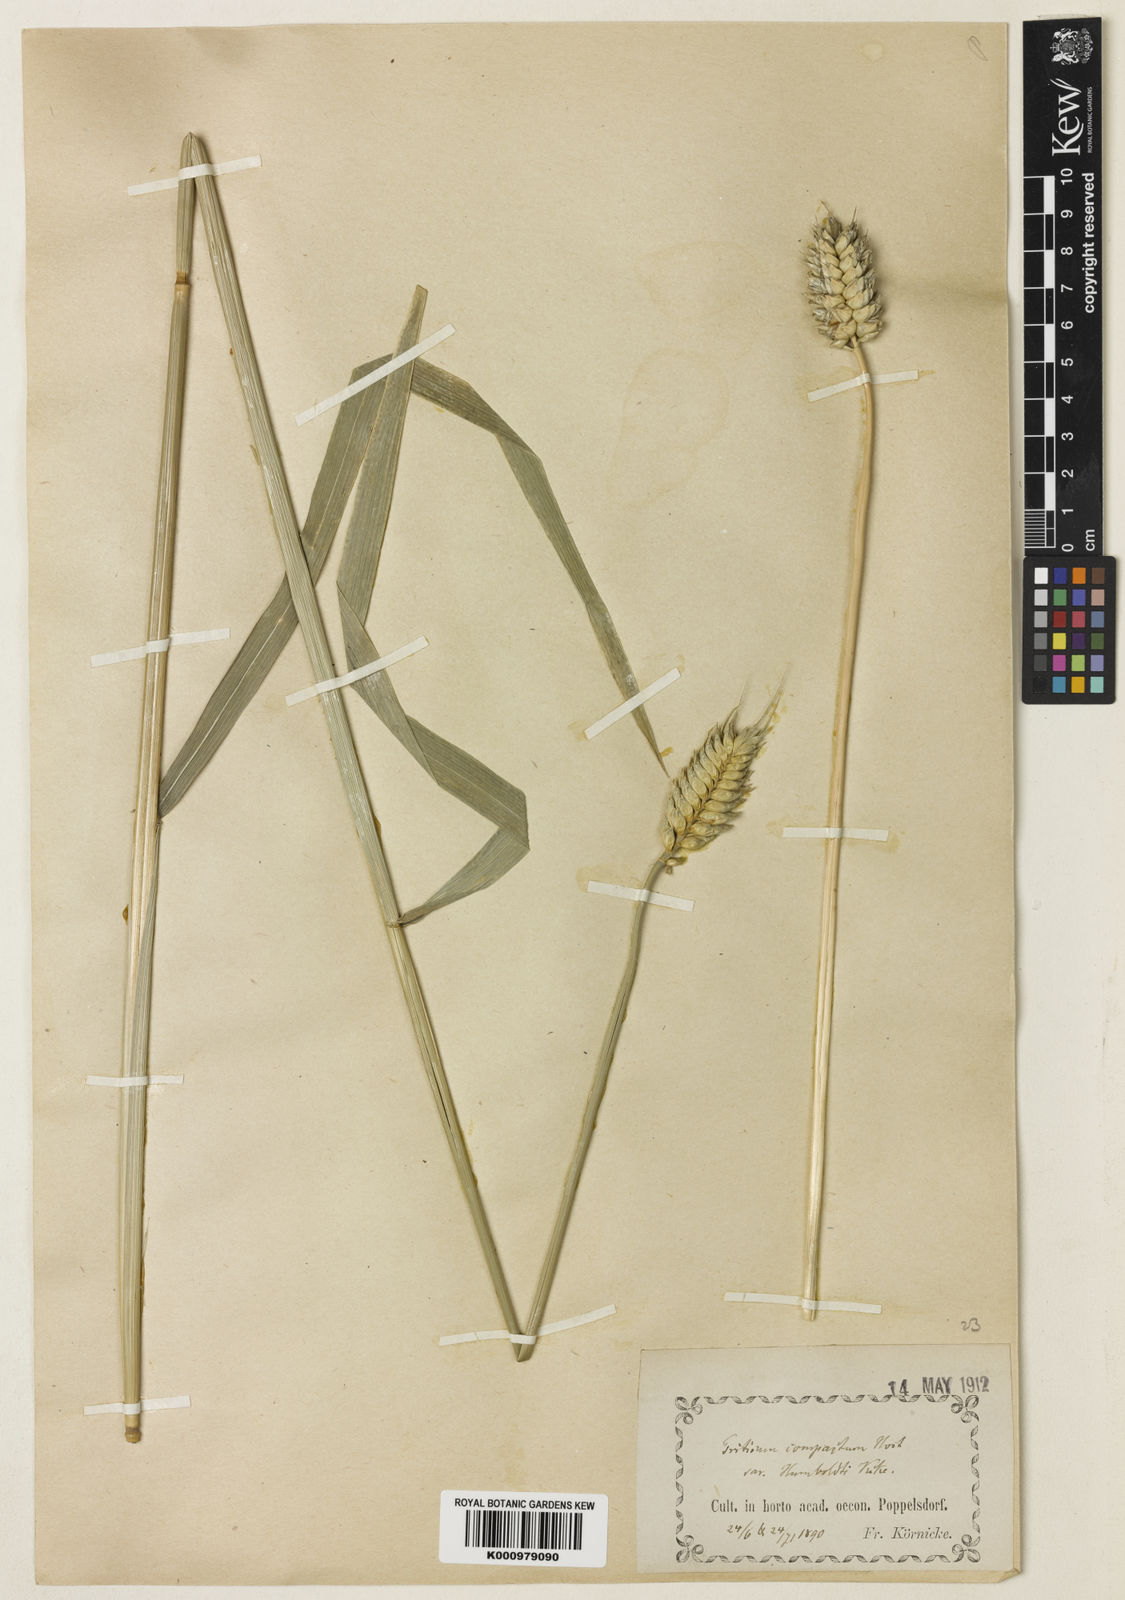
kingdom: Plantae
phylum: Tracheophyta
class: Liliopsida
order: Poales
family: Poaceae
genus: Triticum
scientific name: Triticum aestivum
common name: Common wheat
